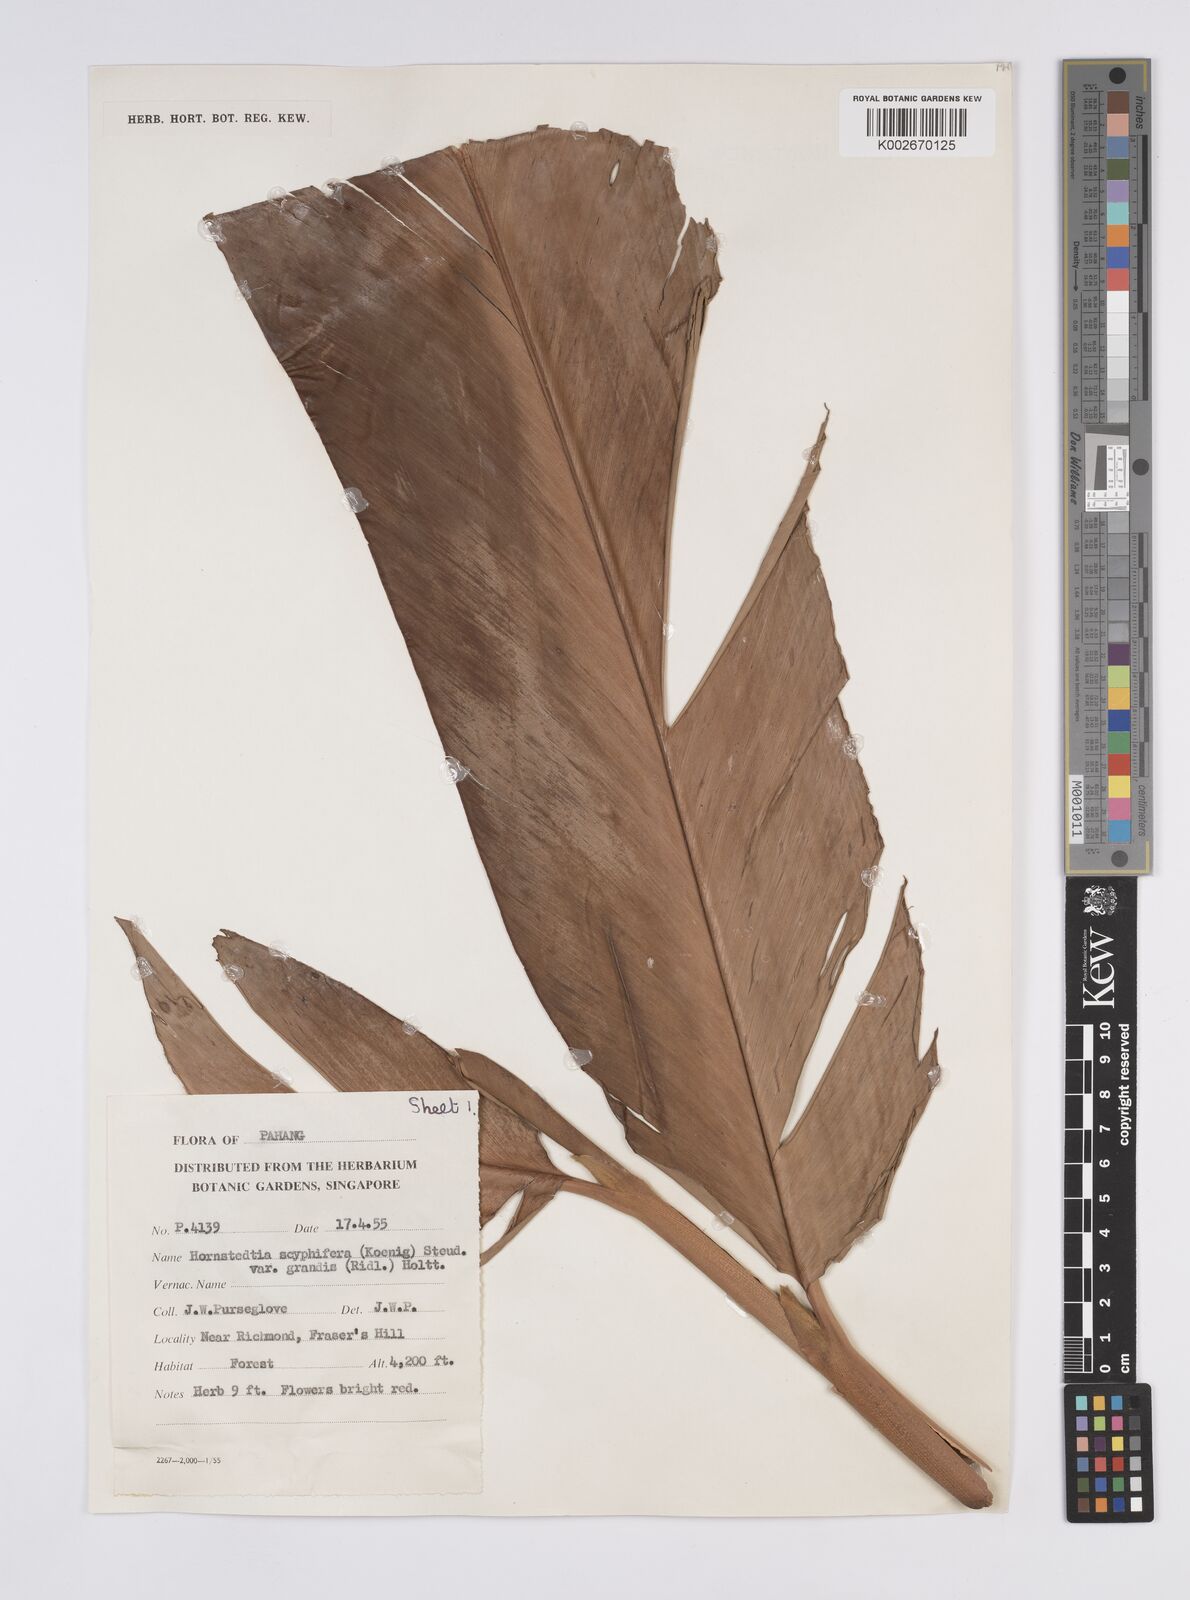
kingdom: Plantae
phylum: Tracheophyta
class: Liliopsida
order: Zingiberales
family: Zingiberaceae
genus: Hornstedtia
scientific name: Hornstedtia scyphifera
